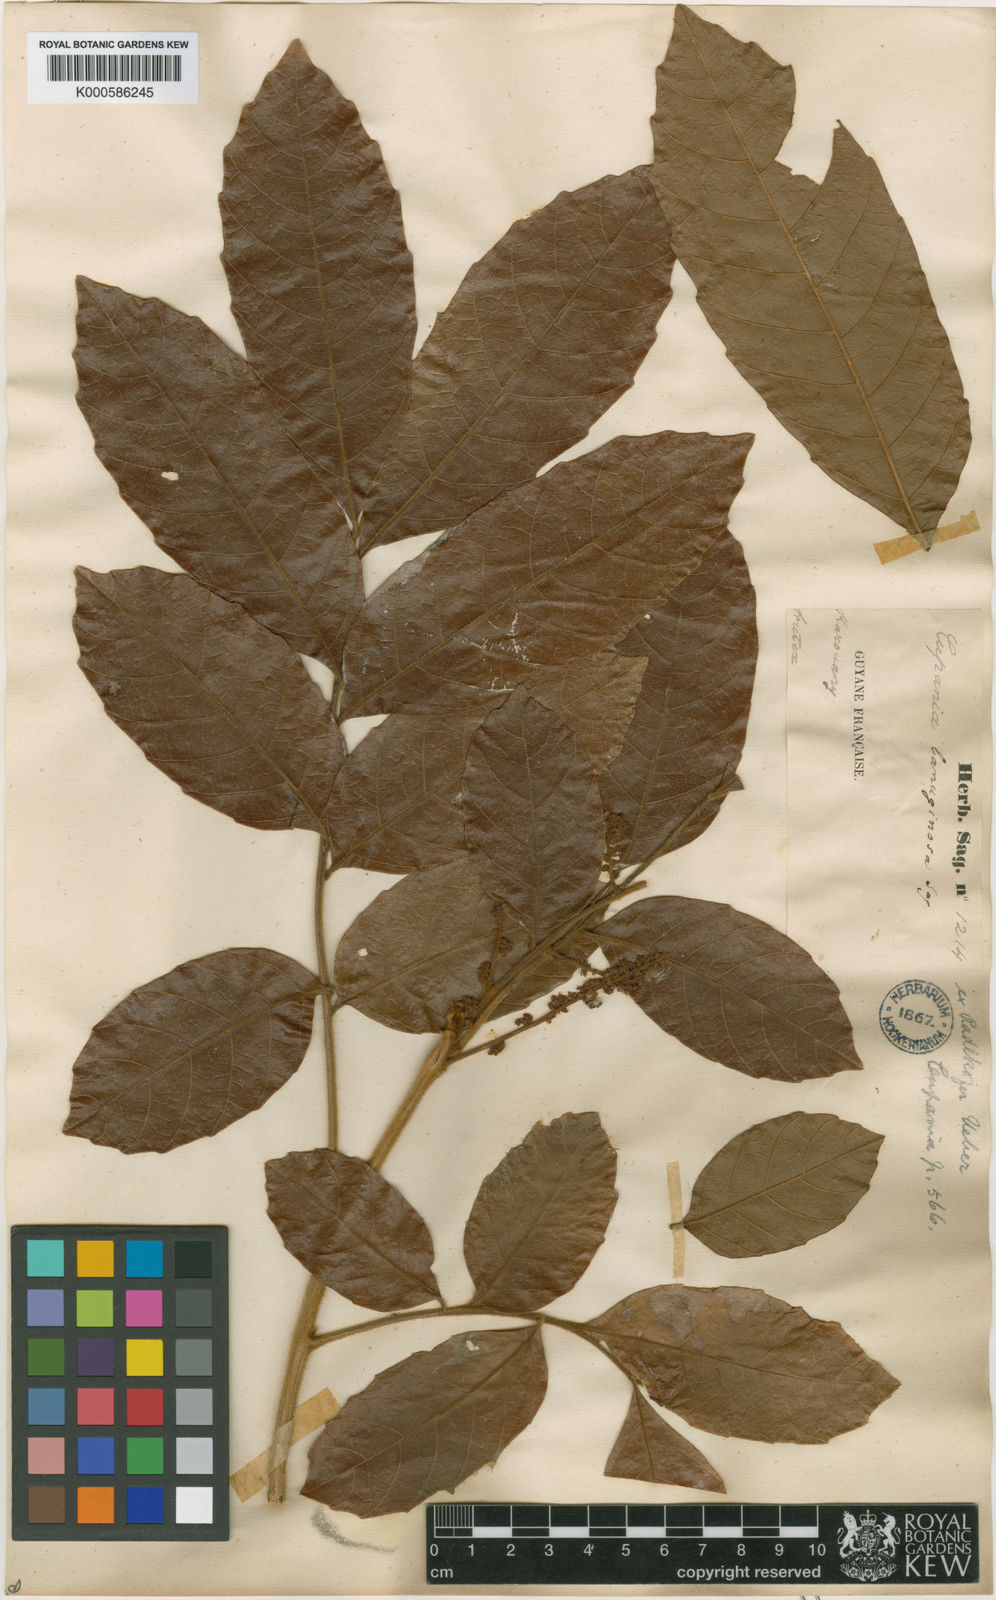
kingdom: Plantae
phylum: Tracheophyta
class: Magnoliopsida
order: Sapindales
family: Sapindaceae
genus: Cupania
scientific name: Cupania hirsuta
